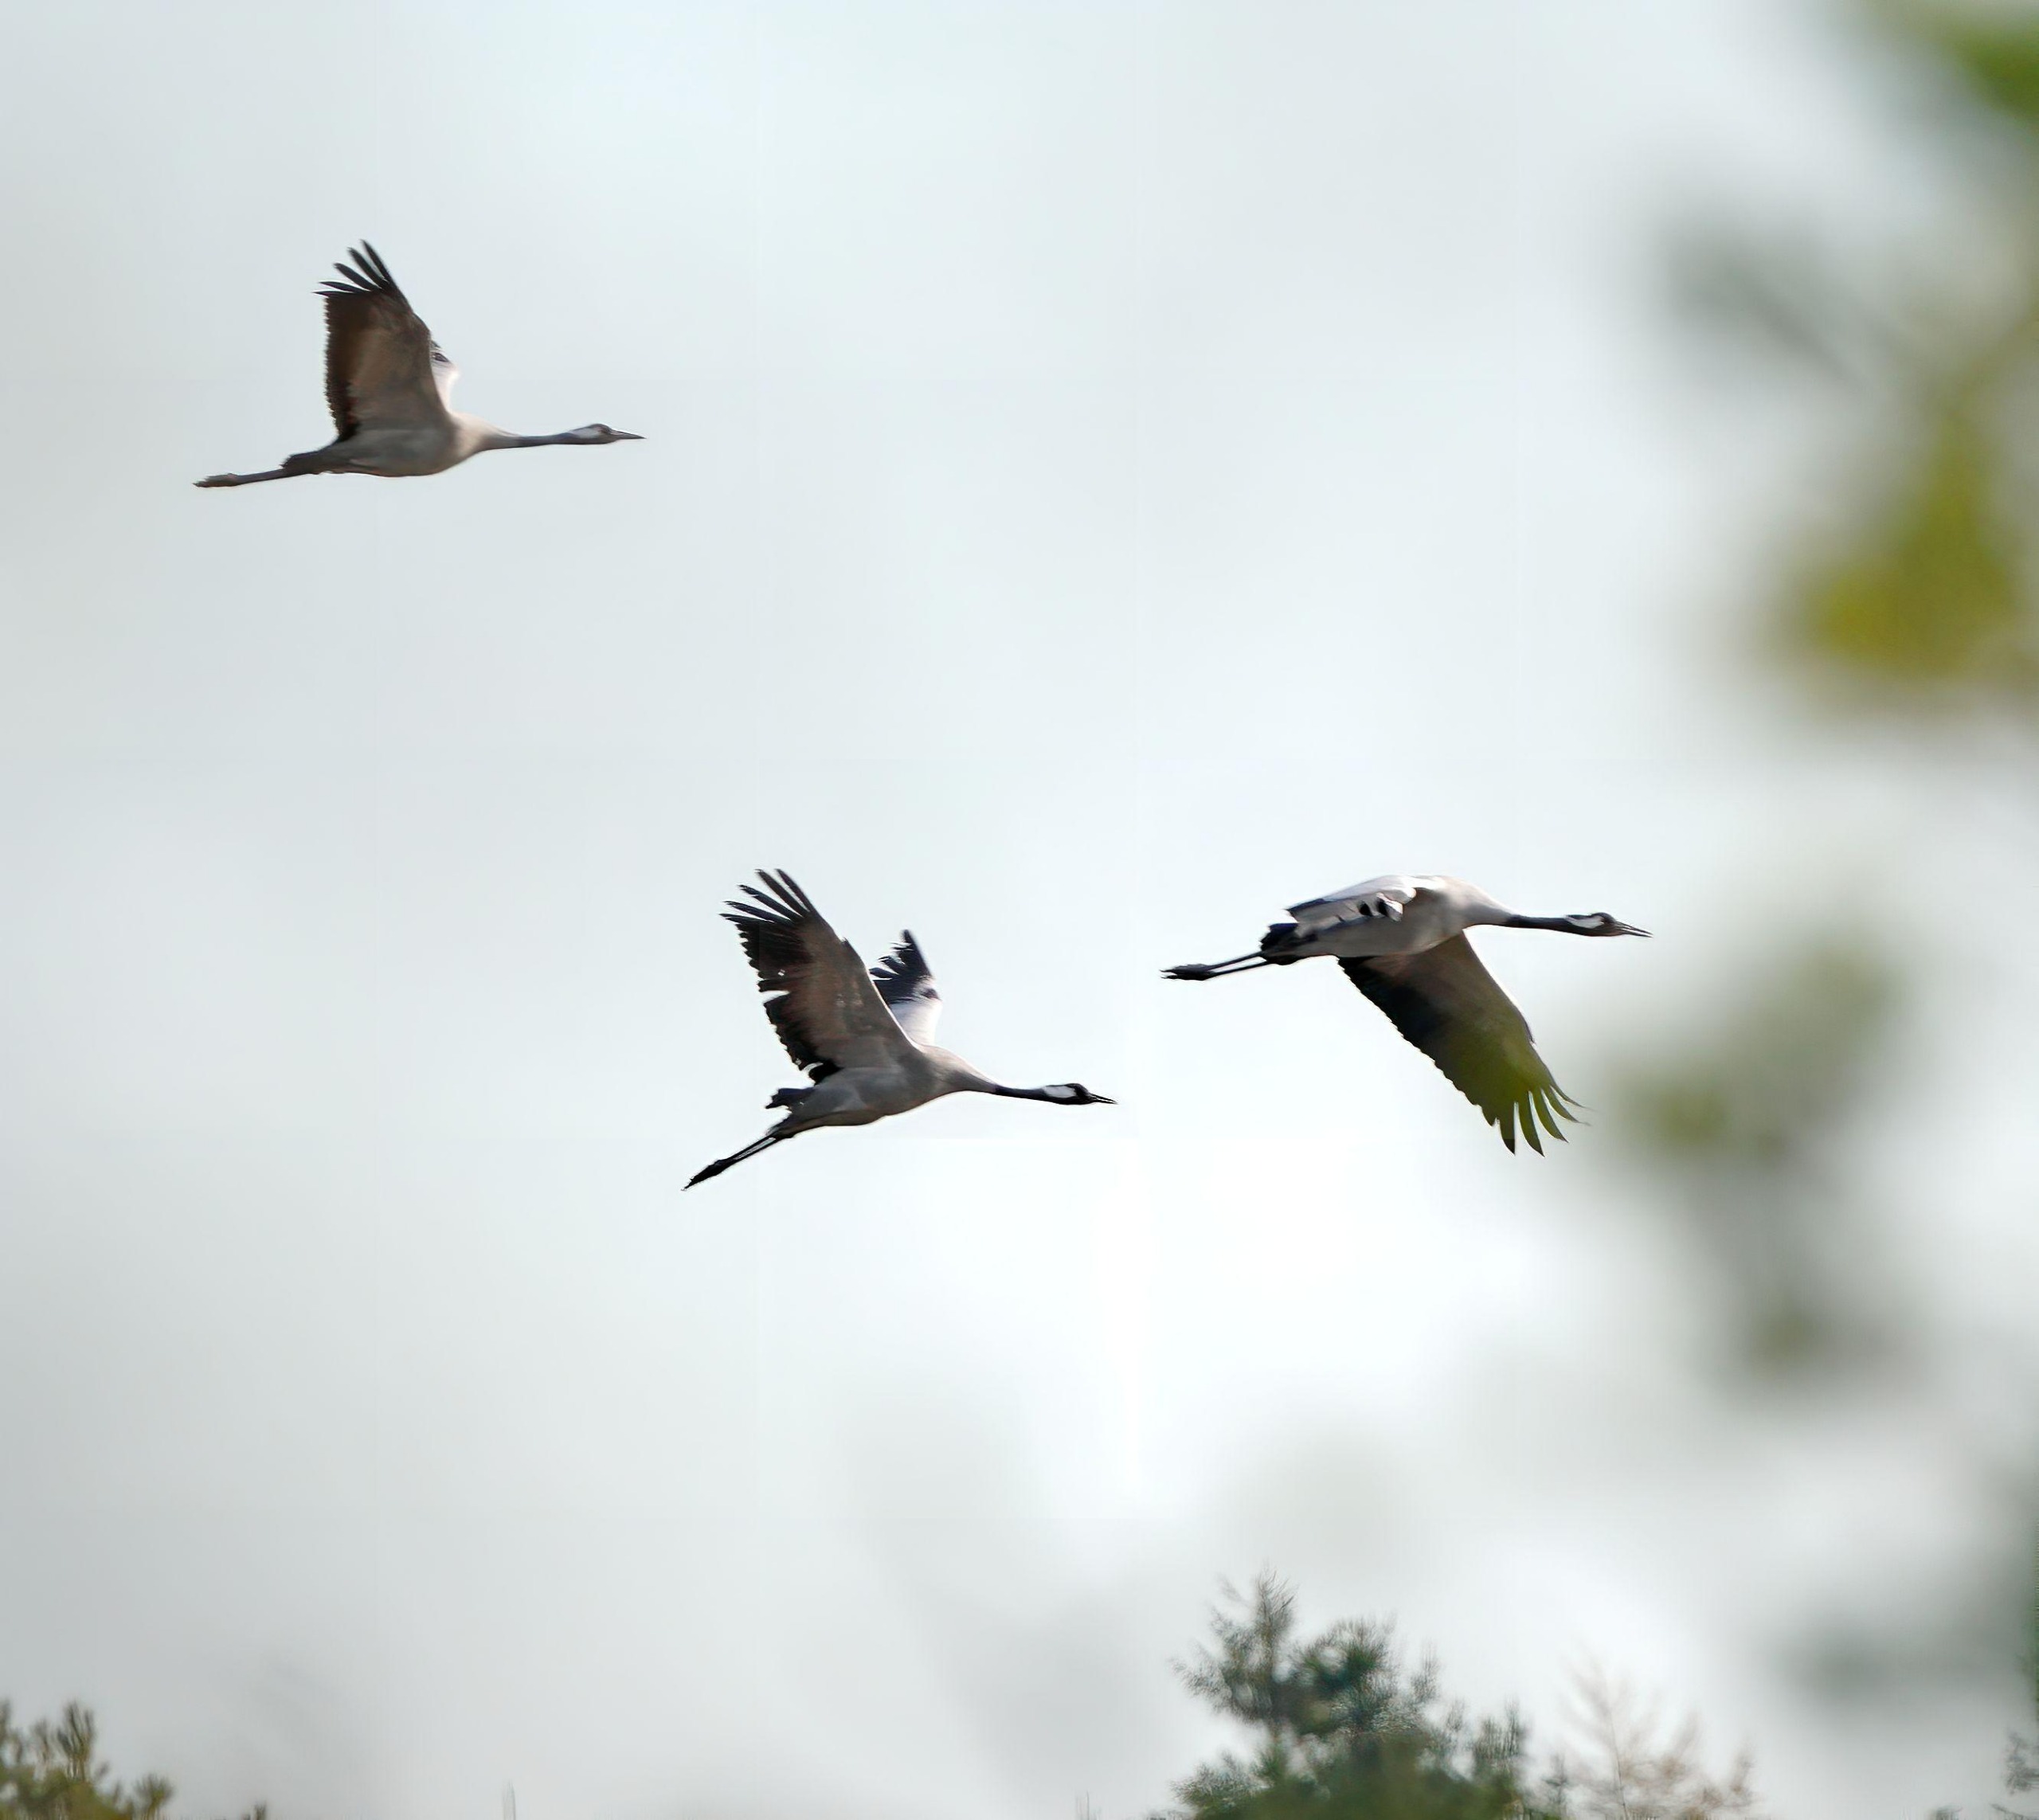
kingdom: Animalia
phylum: Chordata
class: Aves
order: Gruiformes
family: Gruidae
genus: Grus
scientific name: Grus grus
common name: Trane
